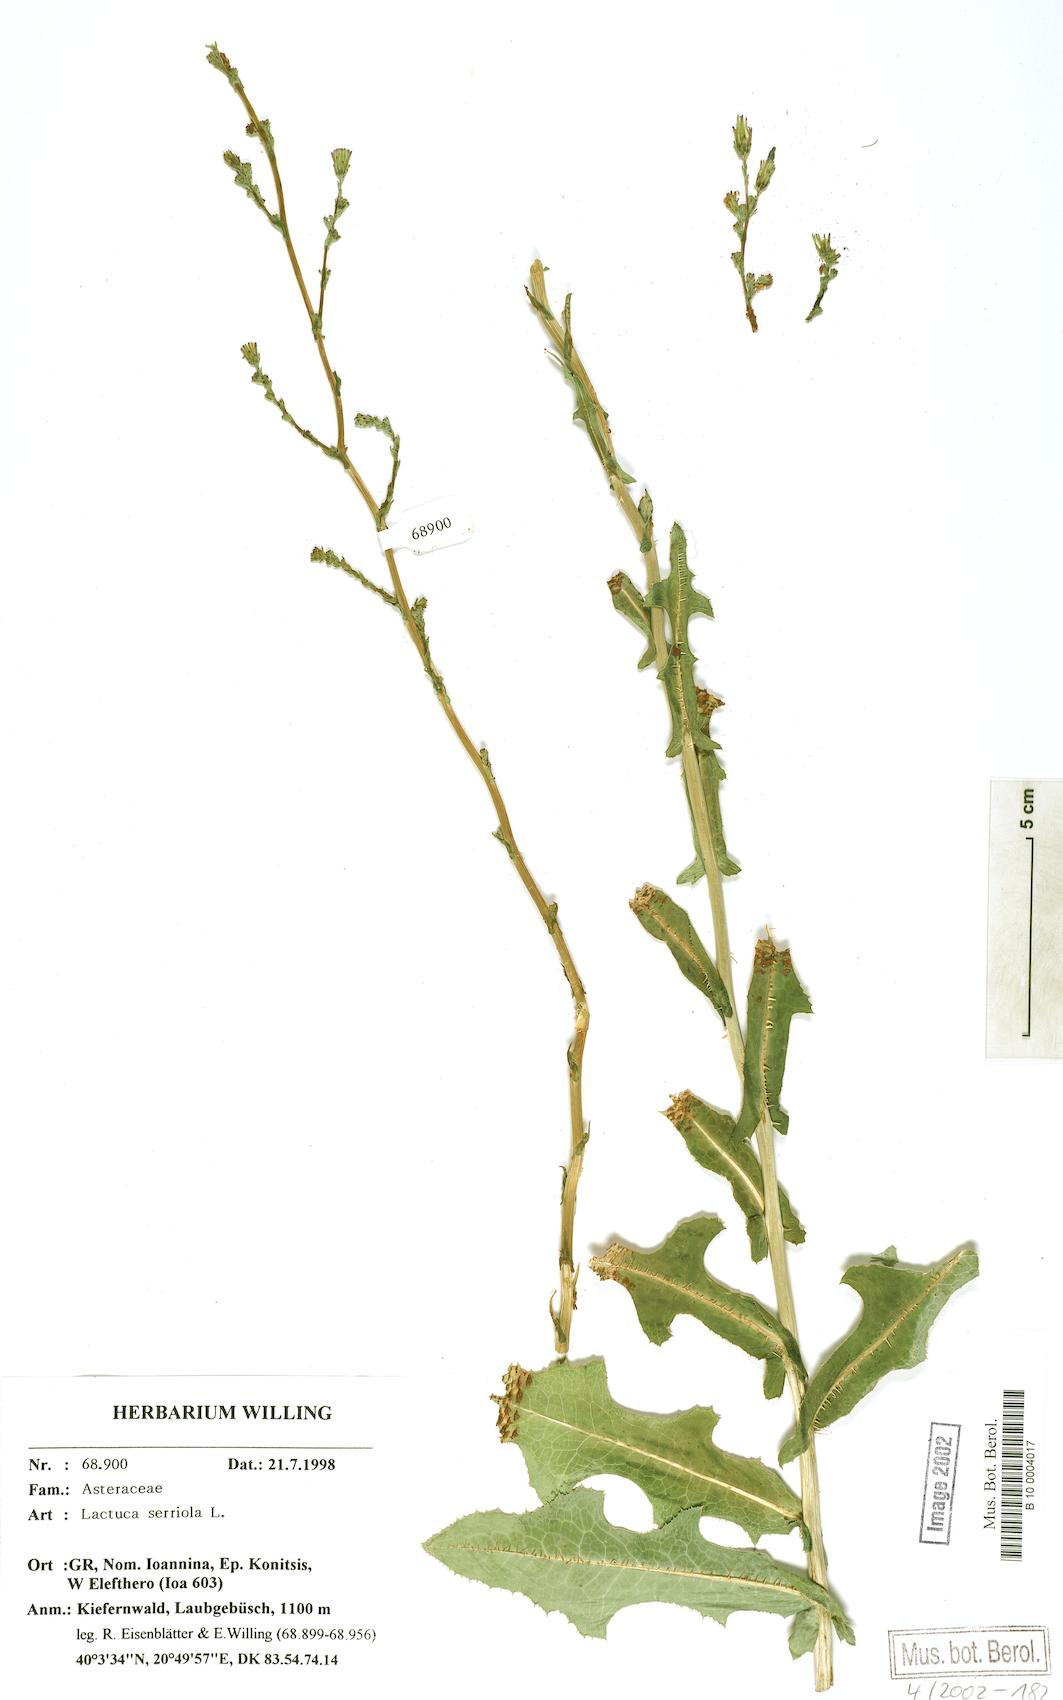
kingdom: Plantae
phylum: Tracheophyta
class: Magnoliopsida
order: Asterales
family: Asteraceae
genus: Lactuca
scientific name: Lactuca serriola
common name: Prickly lettuce
